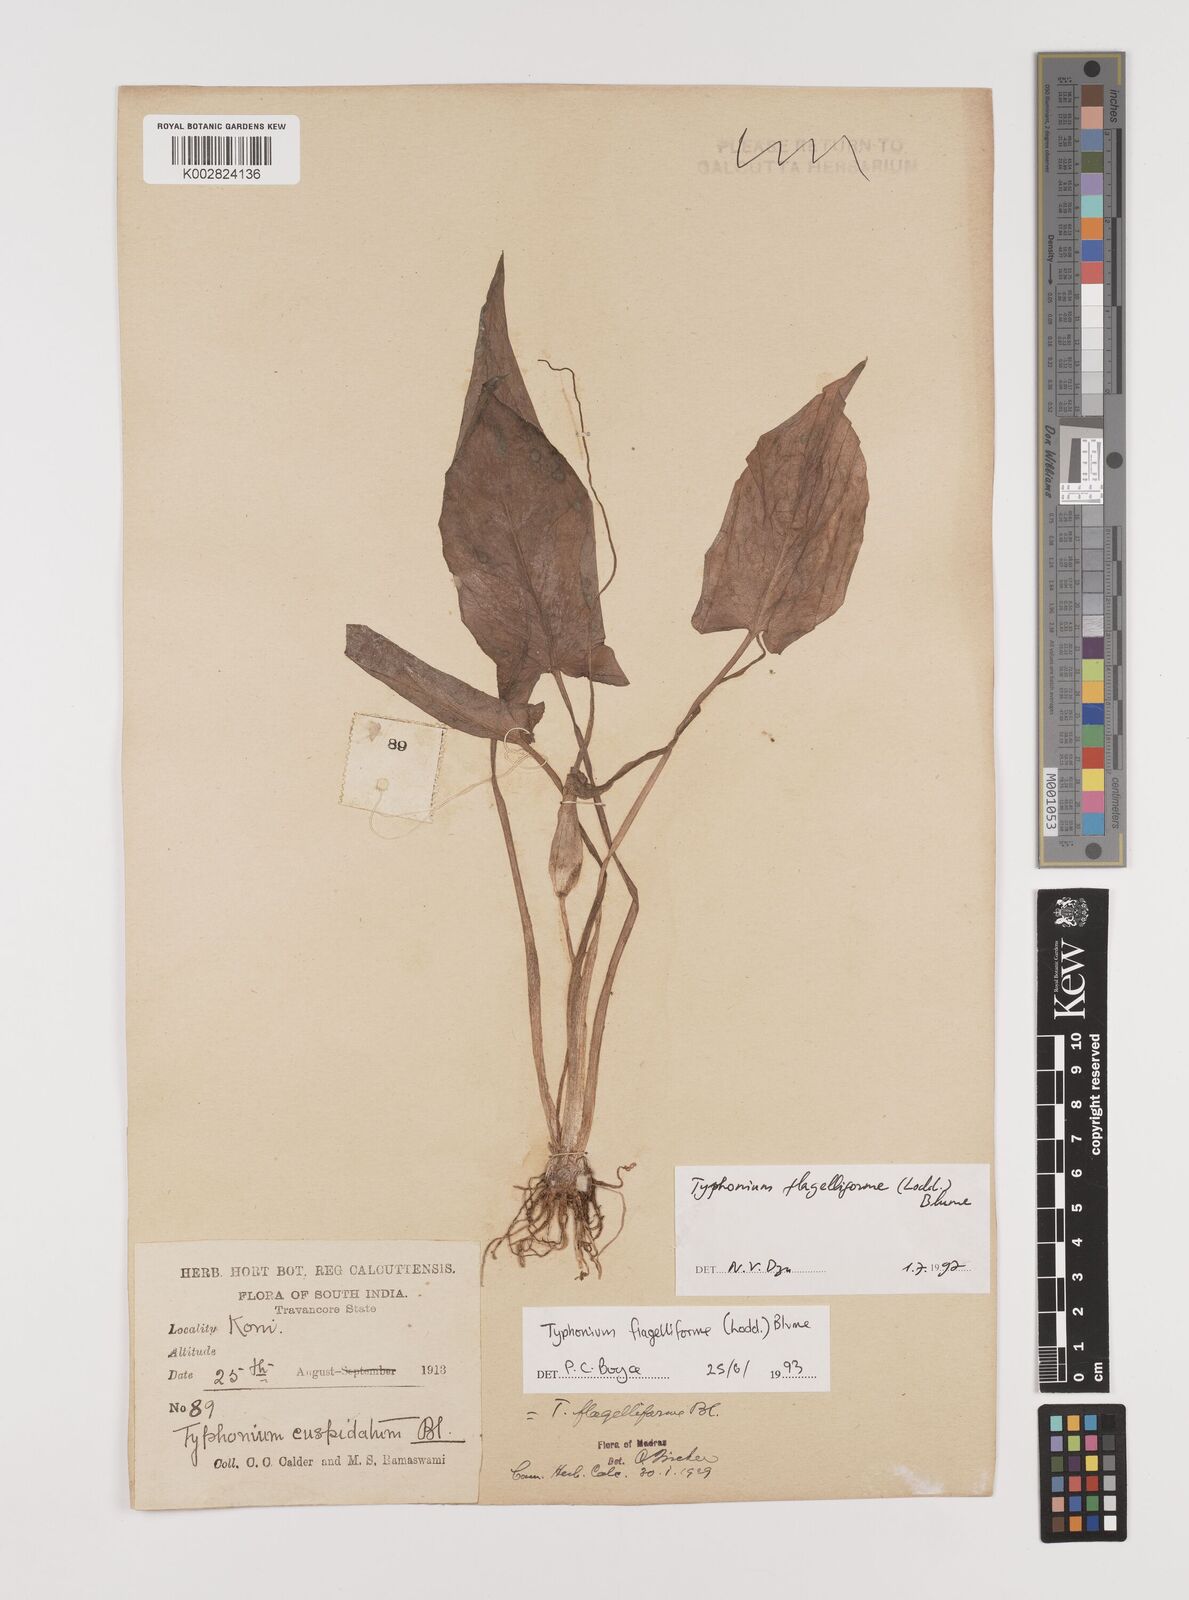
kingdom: Plantae
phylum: Tracheophyta
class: Liliopsida
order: Alismatales
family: Araceae
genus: Typhonium
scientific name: Typhonium flagelliforme
